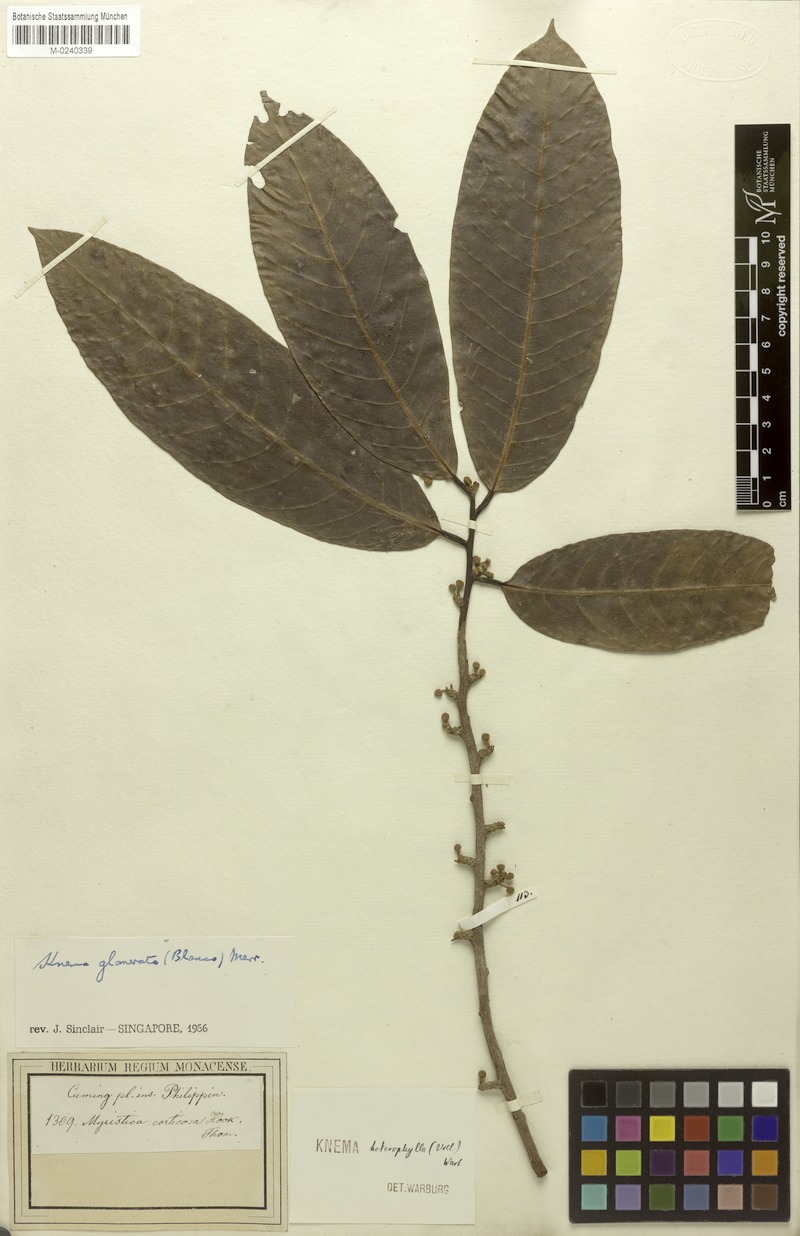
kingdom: Plantae
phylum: Tracheophyta
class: Magnoliopsida
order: Magnoliales
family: Myristicaceae
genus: Knema
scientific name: Knema glomerata
